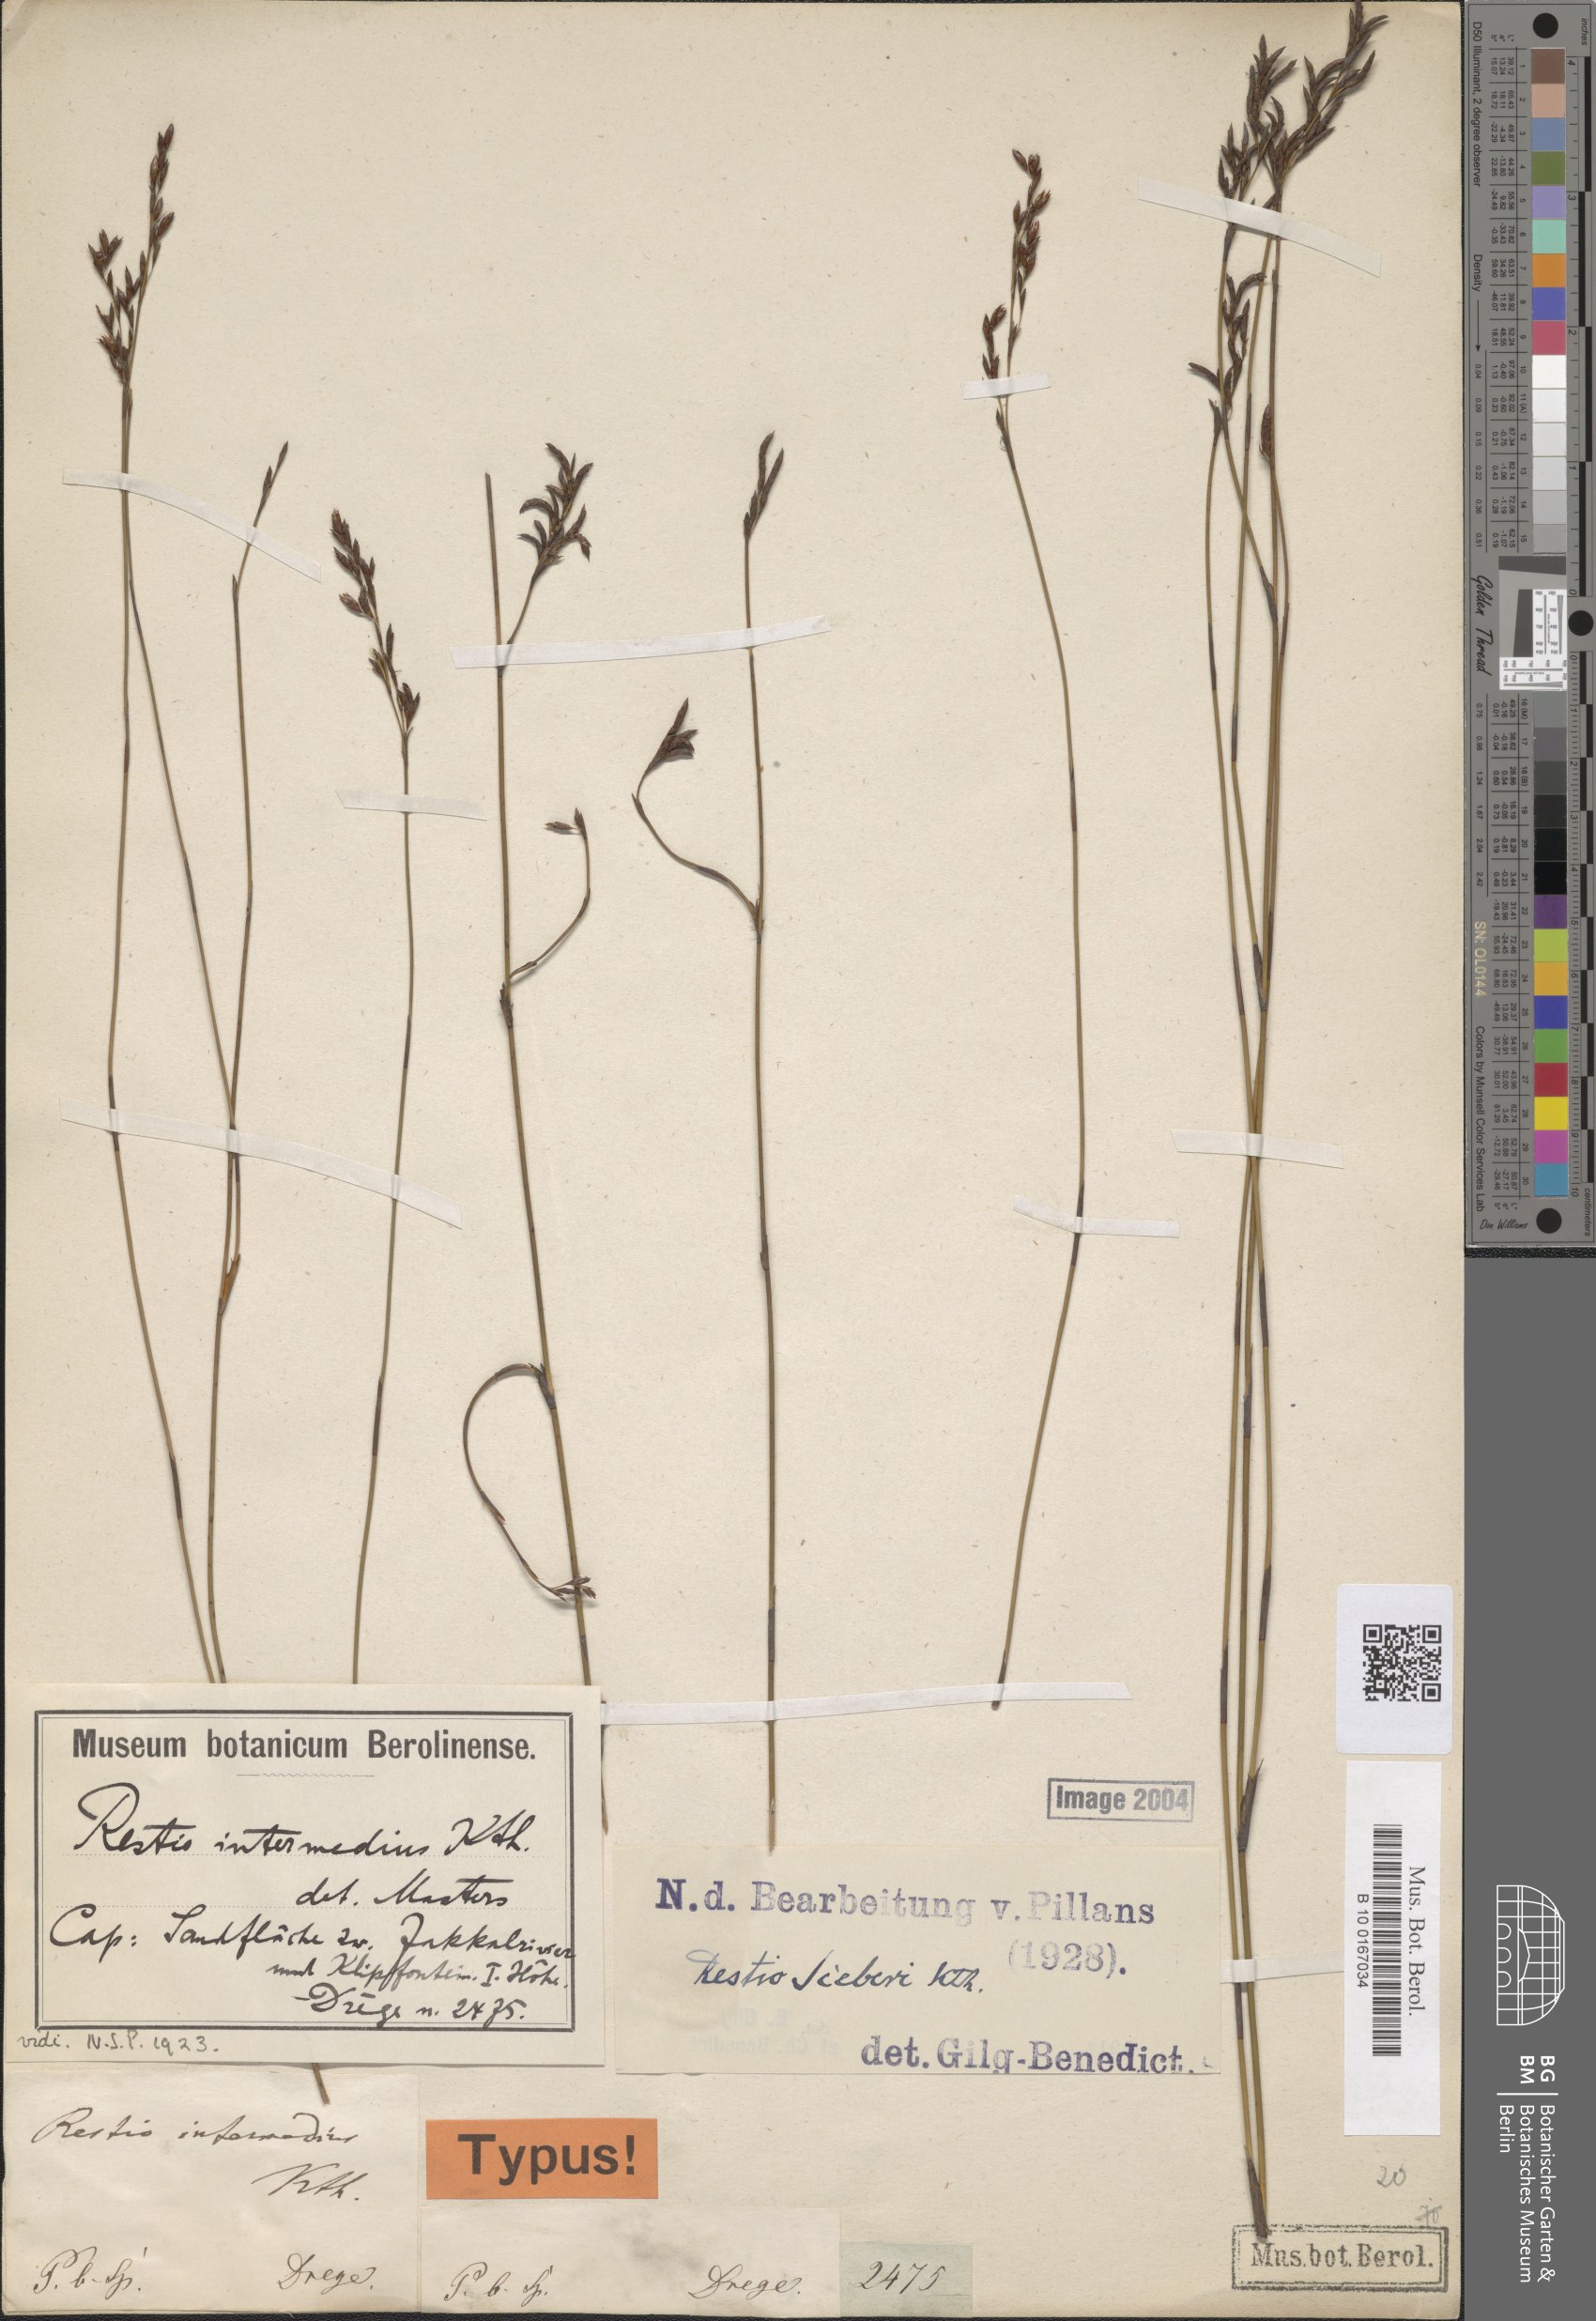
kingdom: Plantae
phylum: Tracheophyta
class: Liliopsida
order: Poales
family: Restionaceae
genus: Restio
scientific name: Restio sieberi
